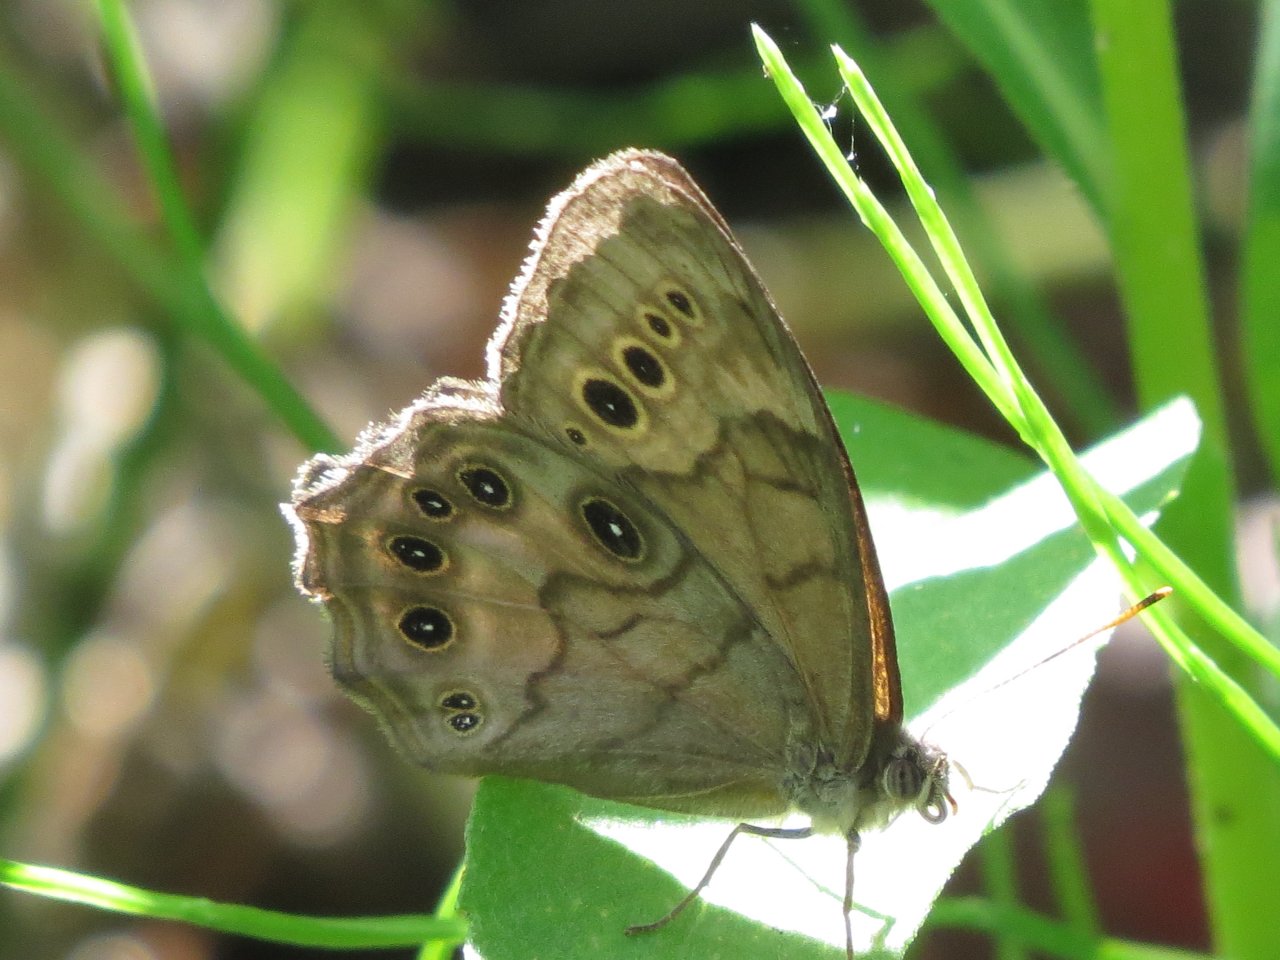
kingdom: Animalia
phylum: Arthropoda
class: Insecta
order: Lepidoptera
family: Nymphalidae
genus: Lethe
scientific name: Lethe anthedon
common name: Northern Pearly-Eye
